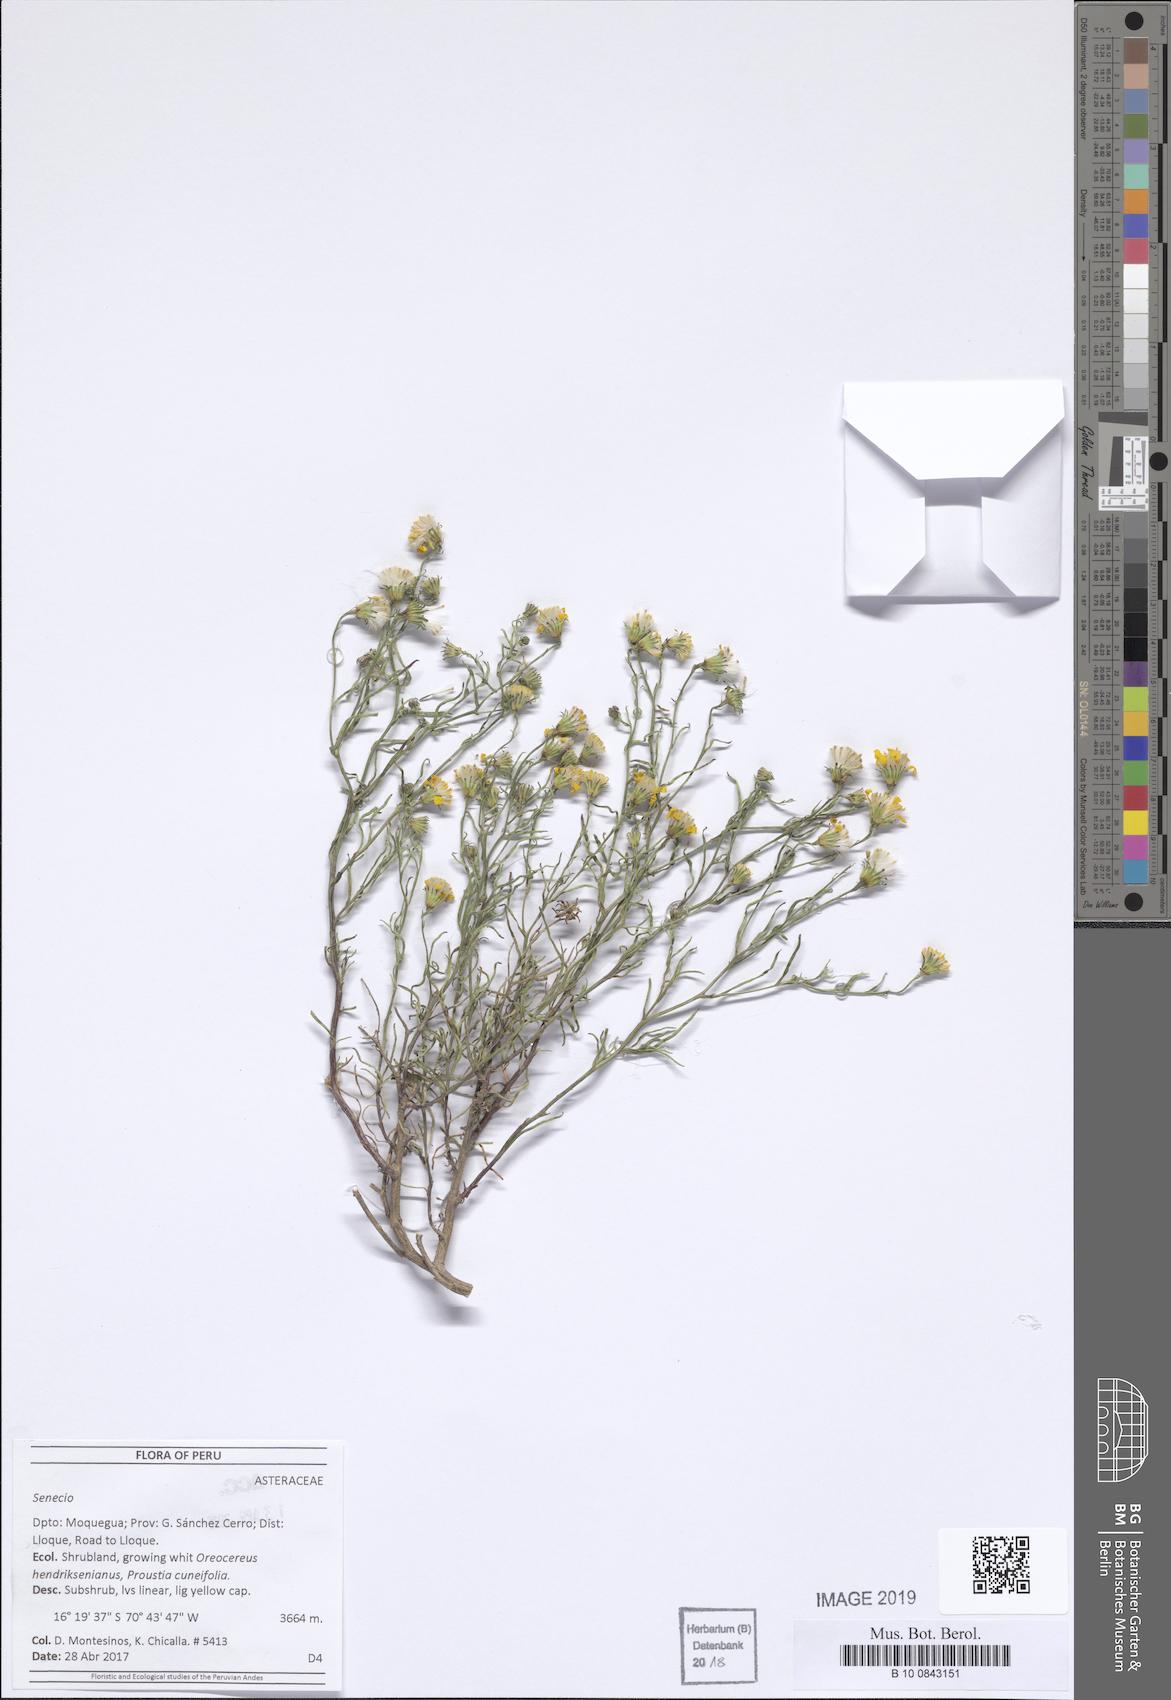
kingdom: Plantae
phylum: Tracheophyta
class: Magnoliopsida
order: Asterales
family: Asteraceae
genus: Senecio
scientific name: Senecio
